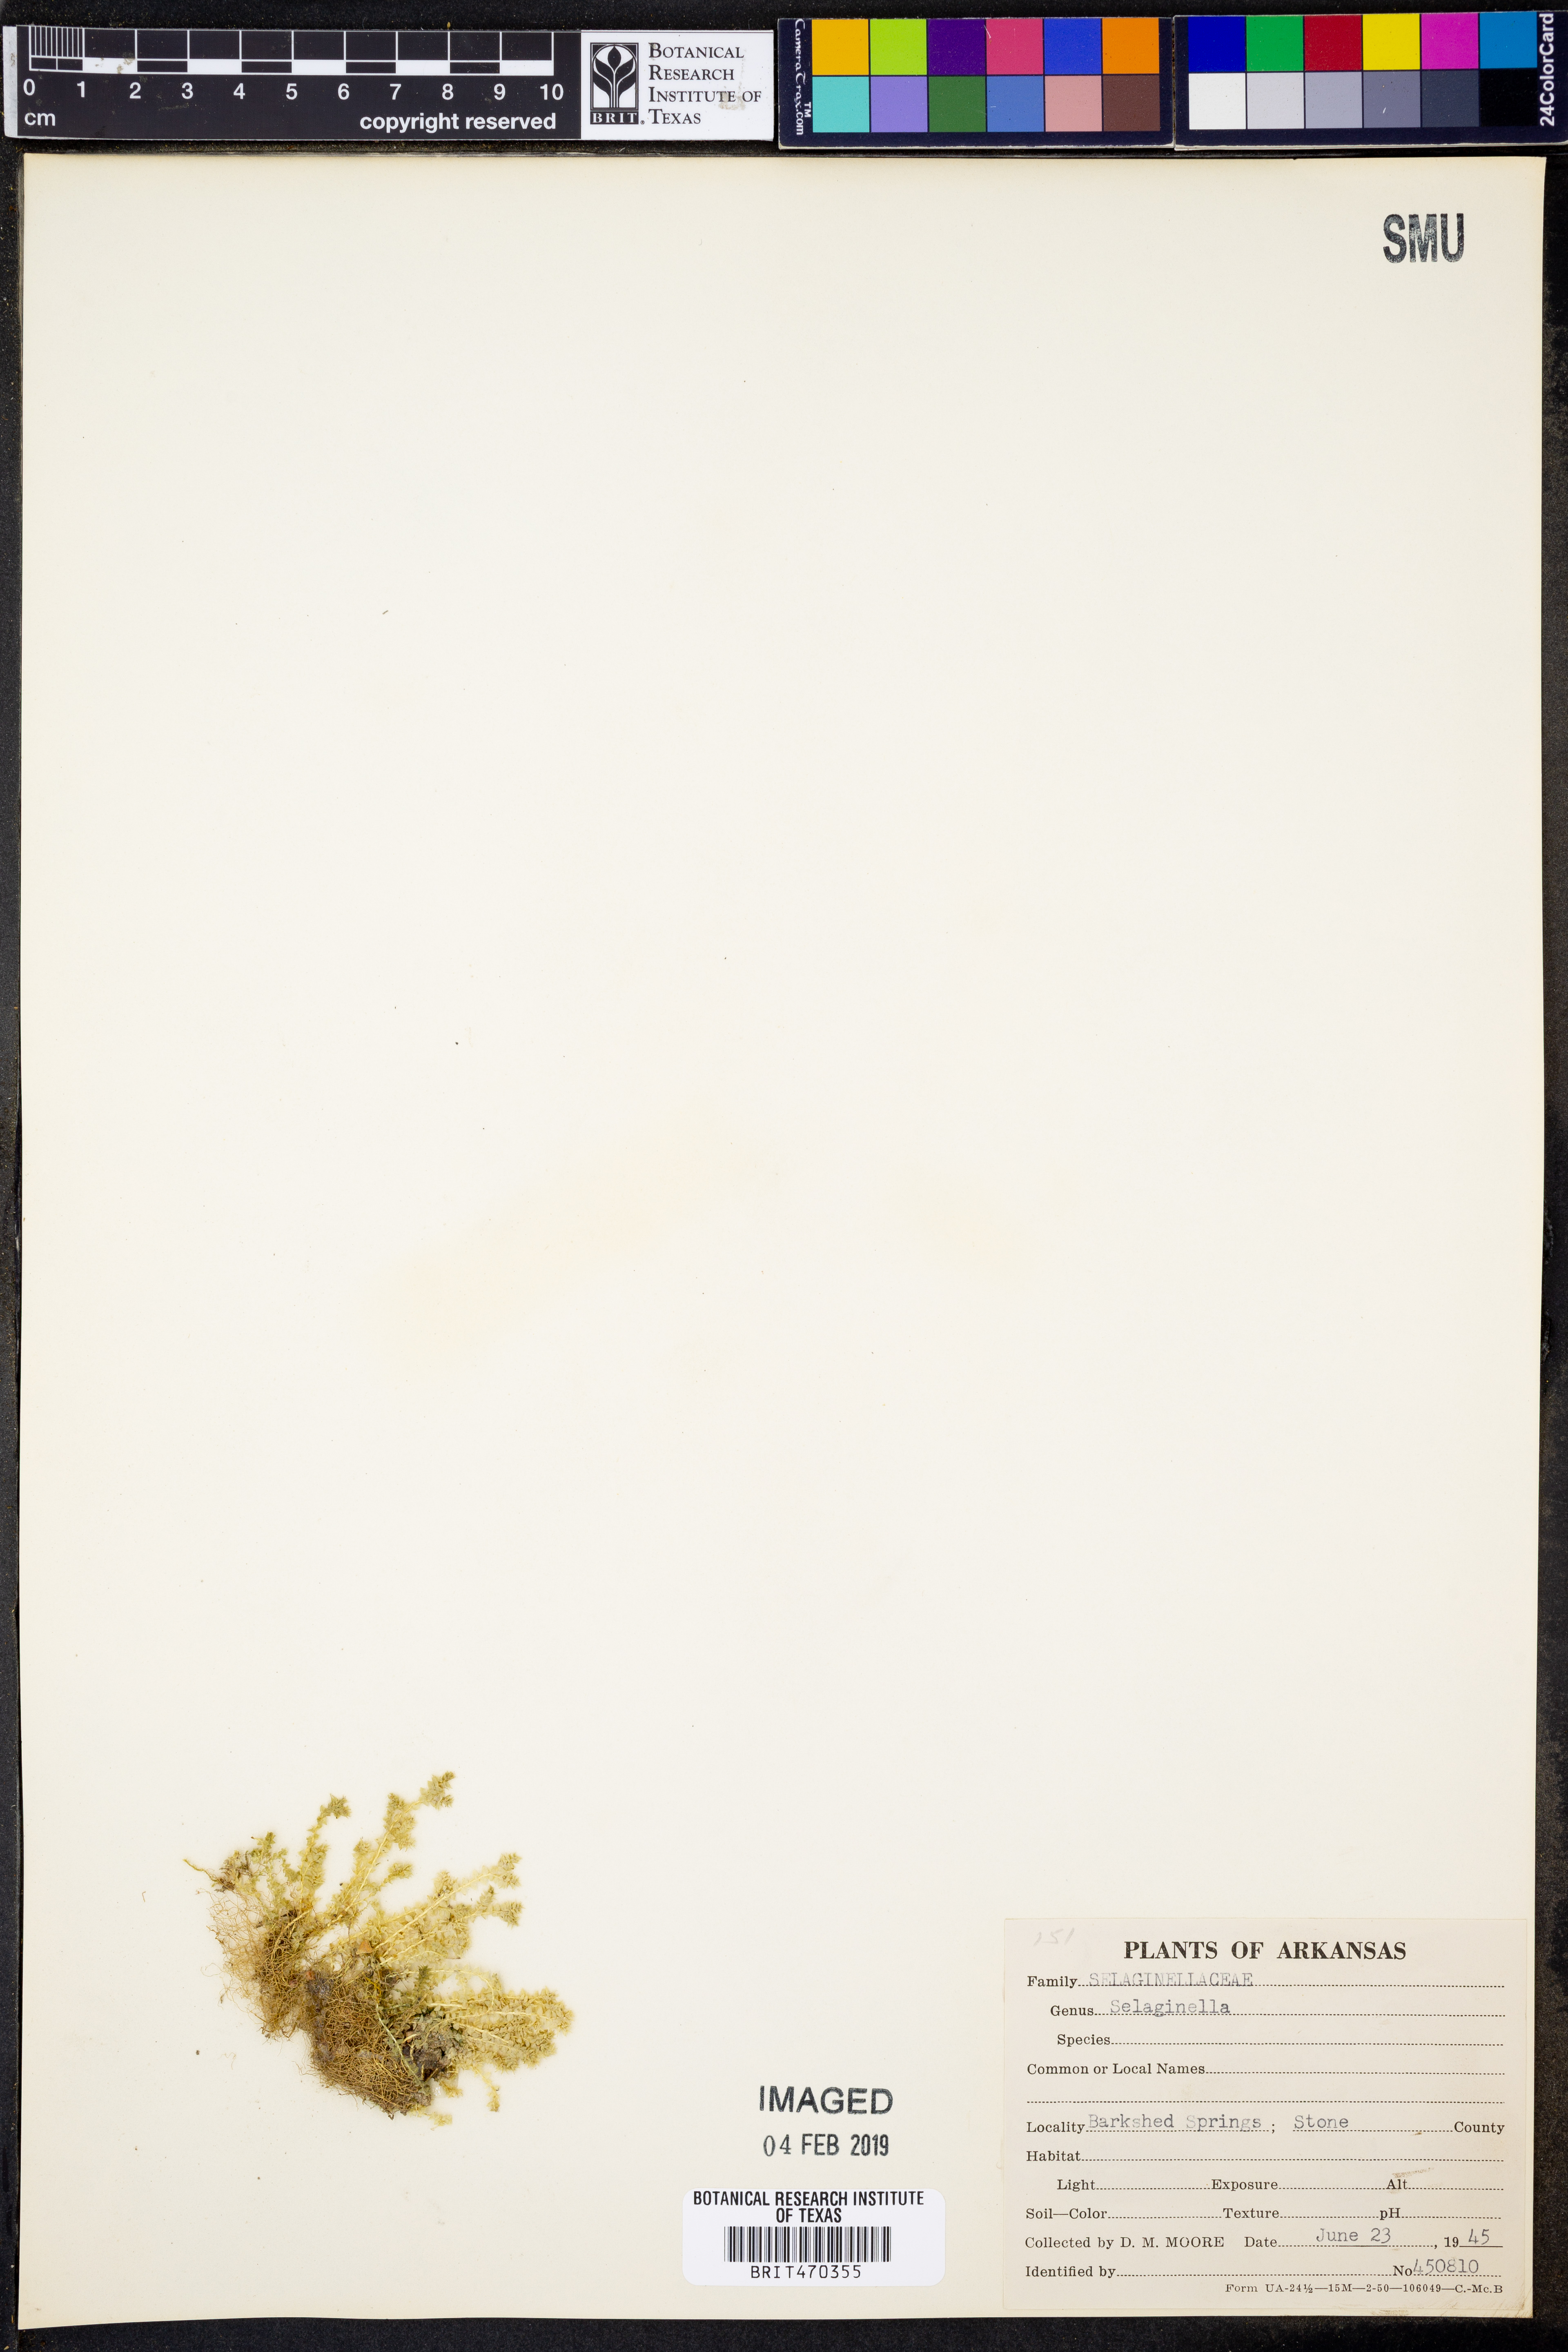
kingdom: Plantae
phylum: Tracheophyta
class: Lycopodiopsida
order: Selaginellales
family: Selaginellaceae
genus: Selaginella
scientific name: Selaginella
